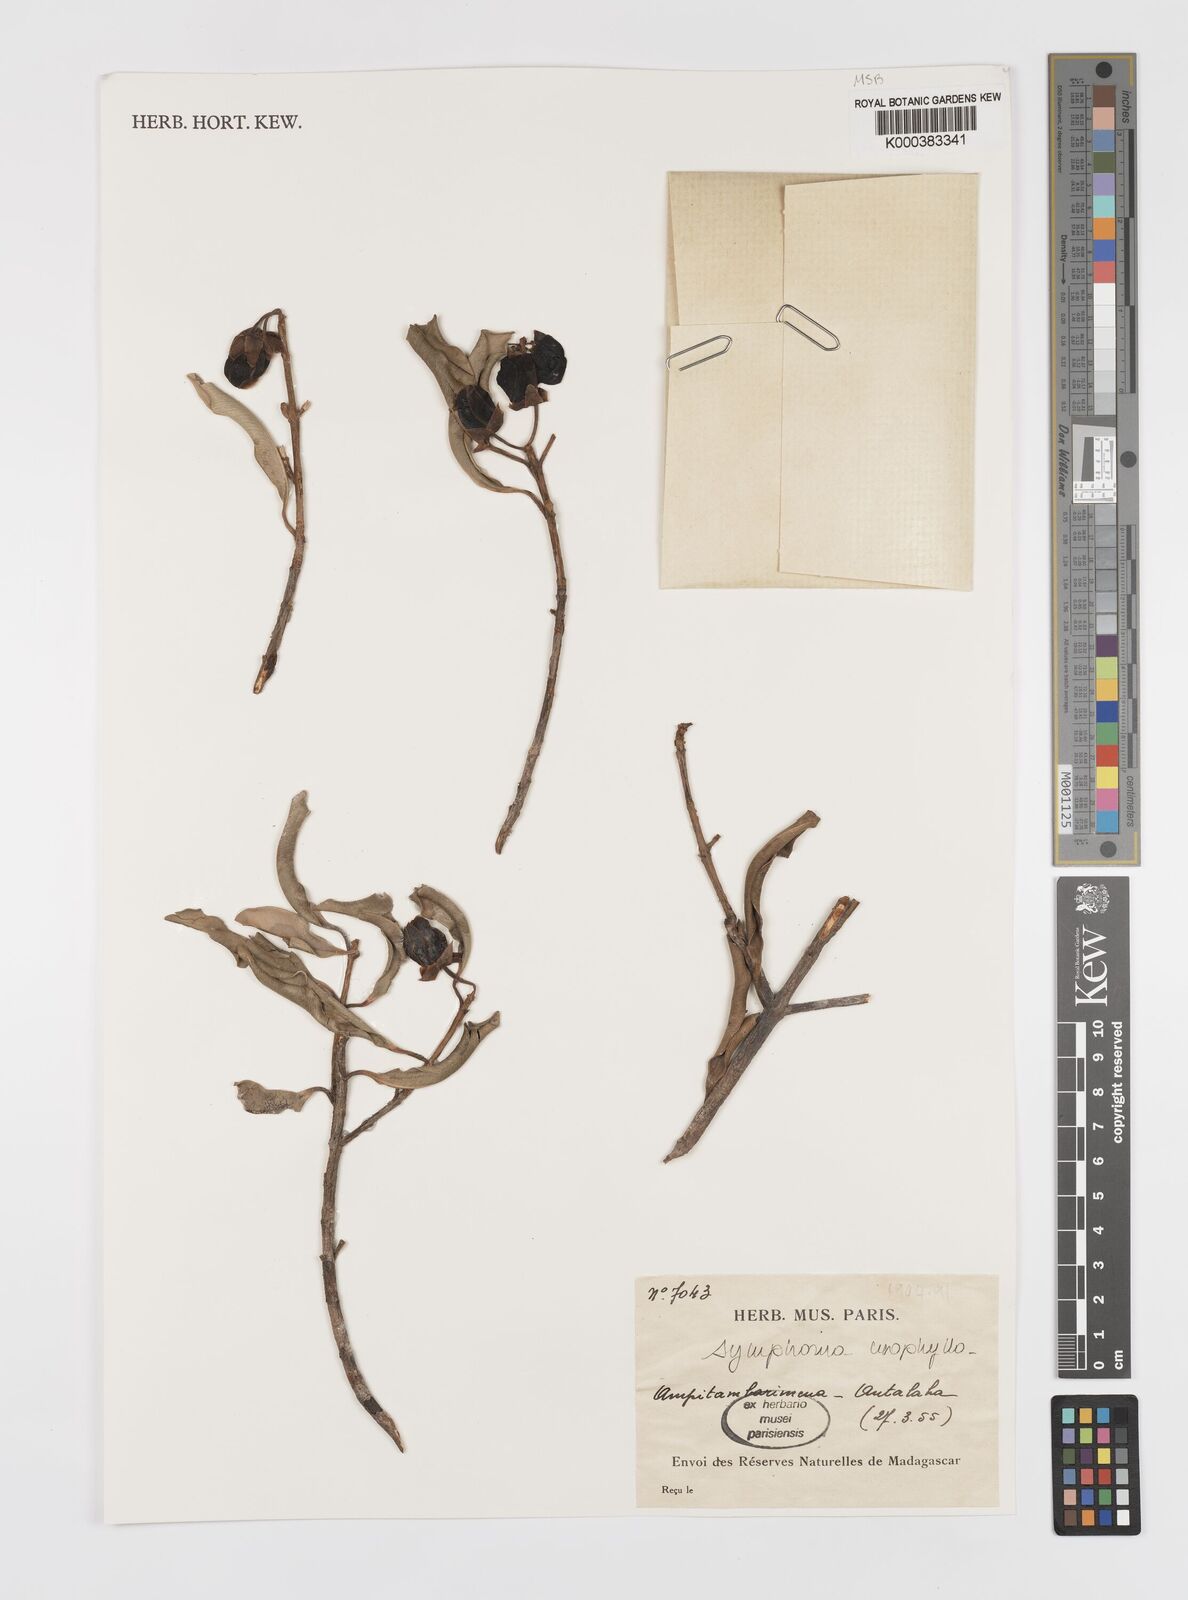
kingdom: Plantae
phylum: Tracheophyta
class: Magnoliopsida
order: Malpighiales
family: Clusiaceae
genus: Symphonia
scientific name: Symphonia
